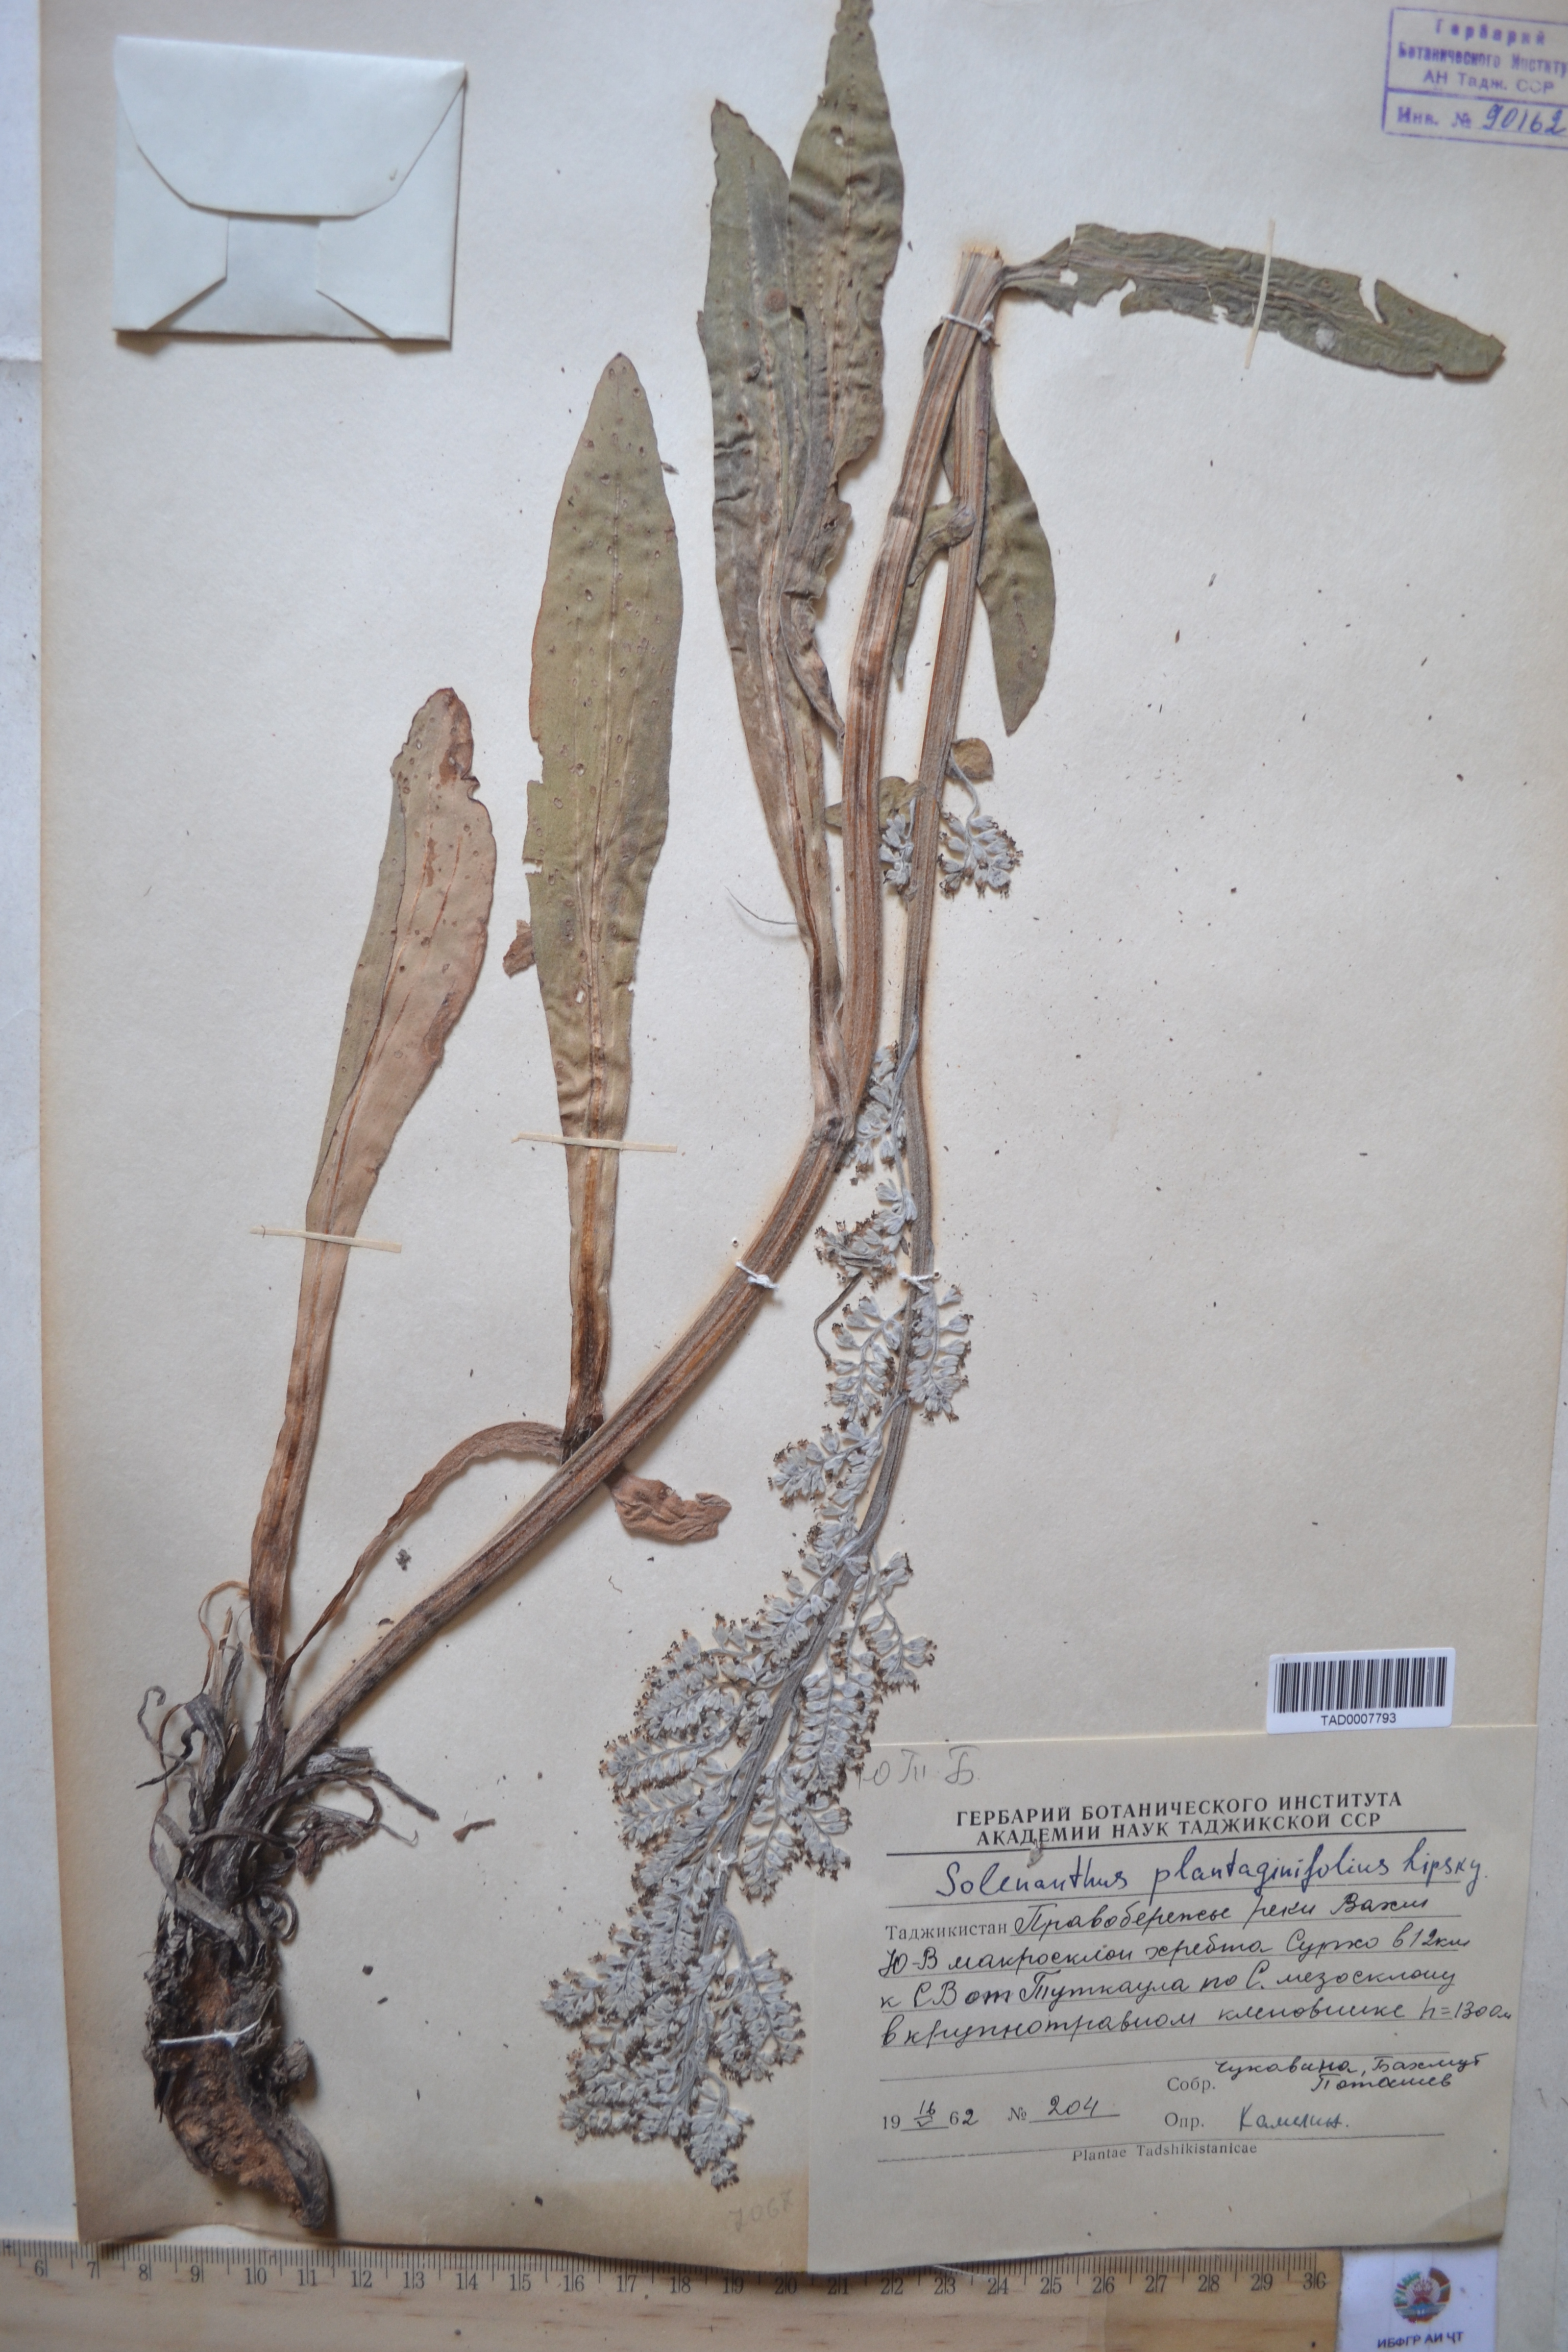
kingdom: Plantae
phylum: Tracheophyta
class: Magnoliopsida
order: Boraginales
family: Boraginaceae
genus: Solenanthus
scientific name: Solenanthus plantaginifolius
